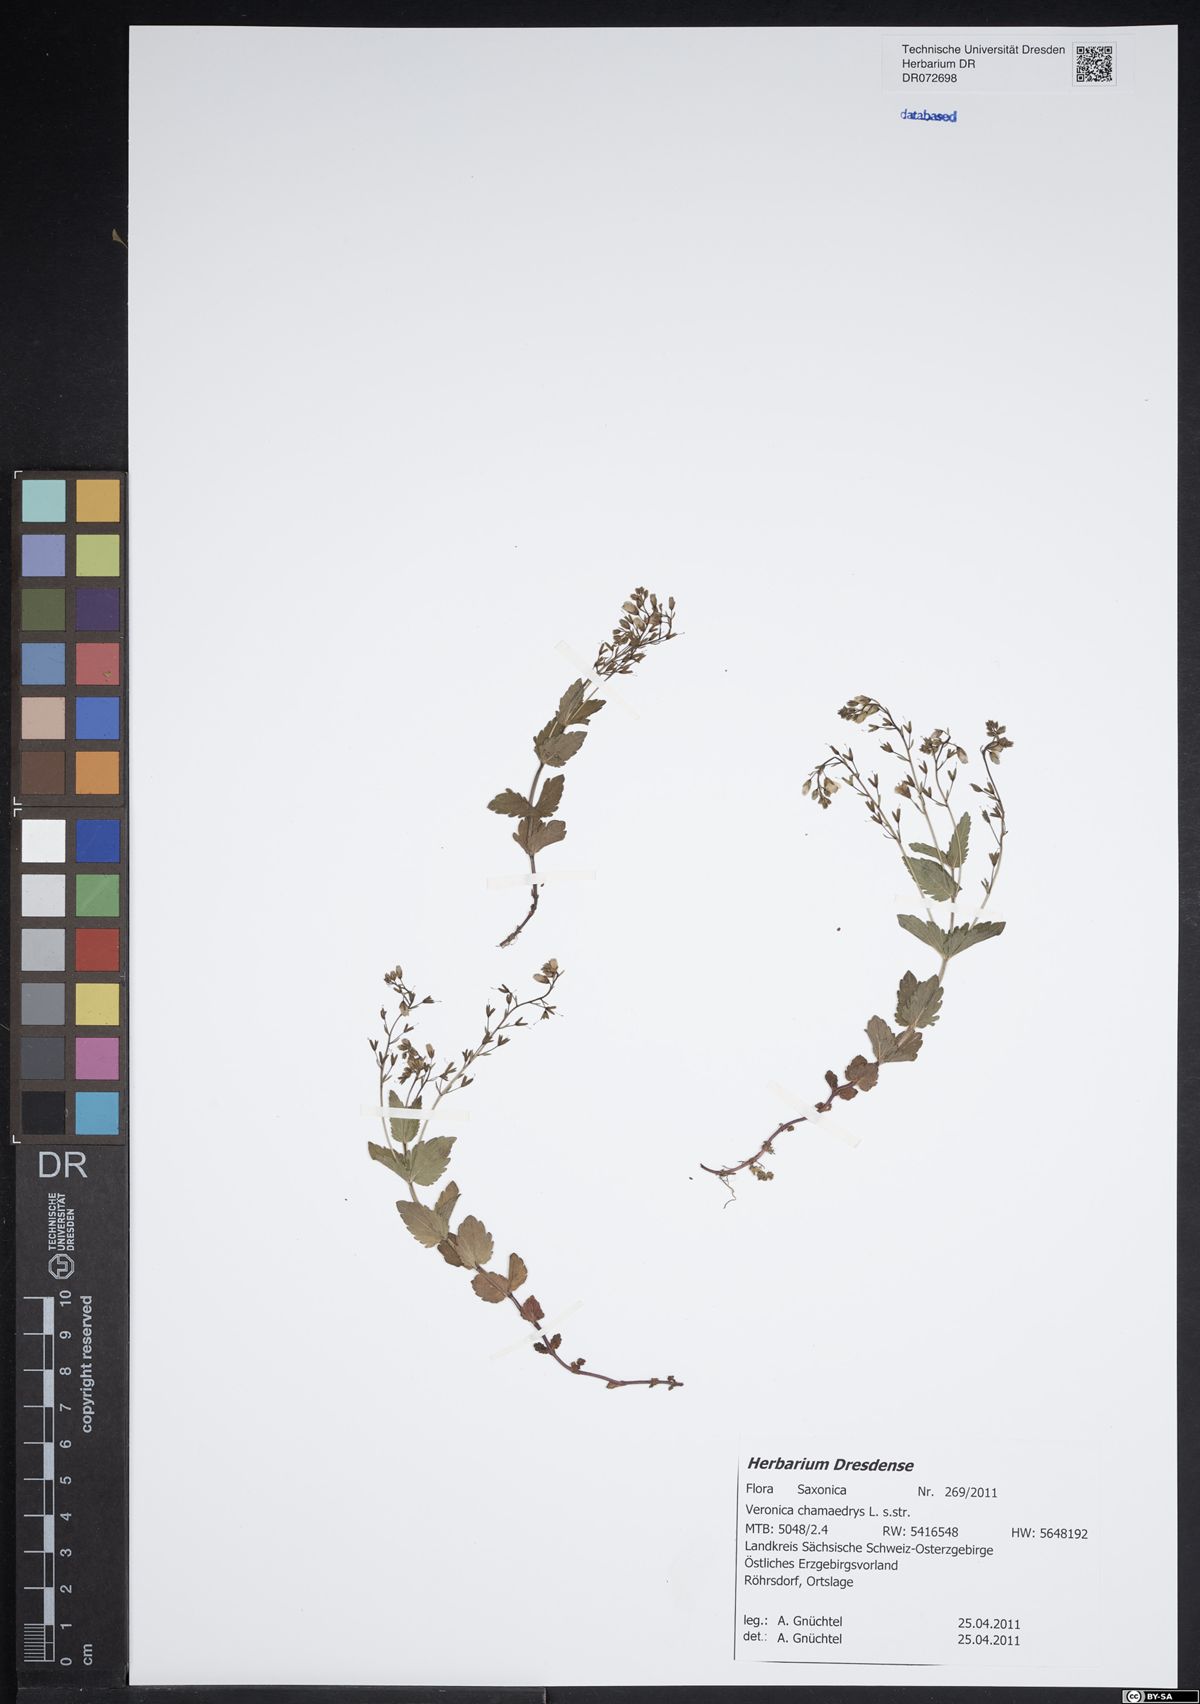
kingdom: Plantae
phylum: Tracheophyta
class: Magnoliopsida
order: Lamiales
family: Plantaginaceae
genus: Veronica
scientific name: Veronica chamaedrys
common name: Germander speedwell
